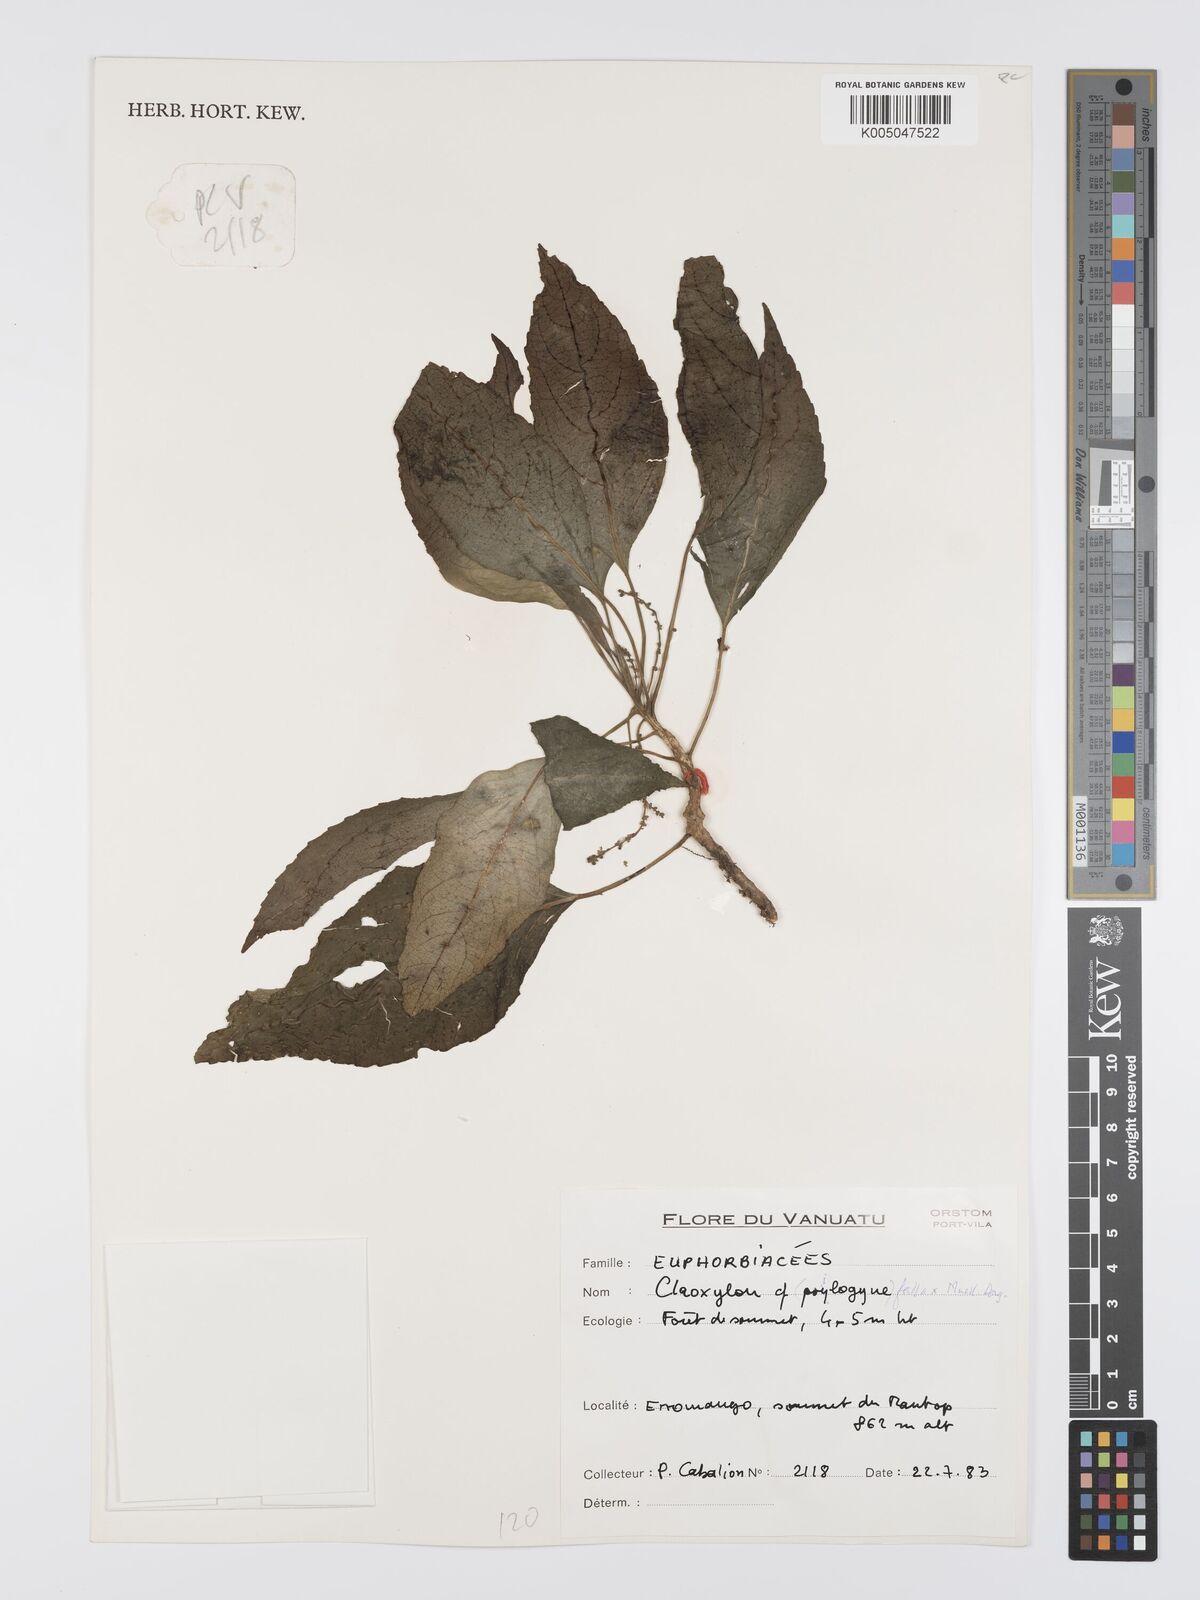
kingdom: Plantae
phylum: Tracheophyta
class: Magnoliopsida
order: Malpighiales
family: Euphorbiaceae
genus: Claoxylon
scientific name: Claoxylon fallax
